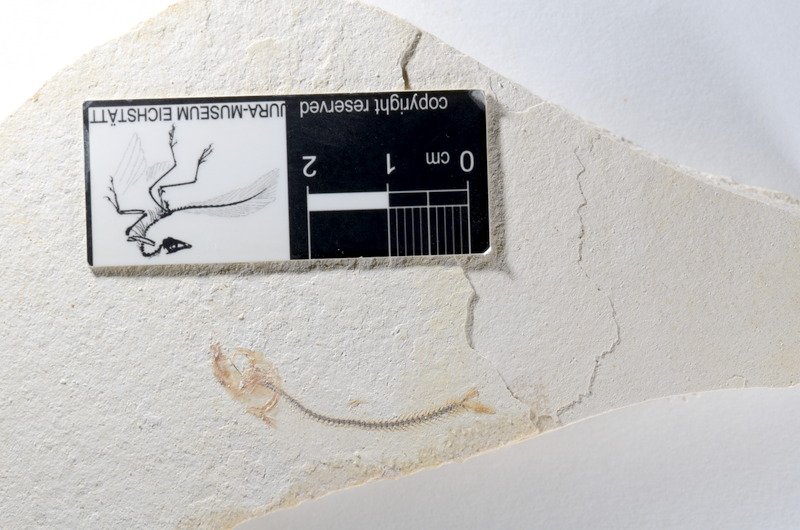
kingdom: Animalia
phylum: Chordata
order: Salmoniformes
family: Orthogonikleithridae
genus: Orthogonikleithrus
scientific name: Orthogonikleithrus hoelli
